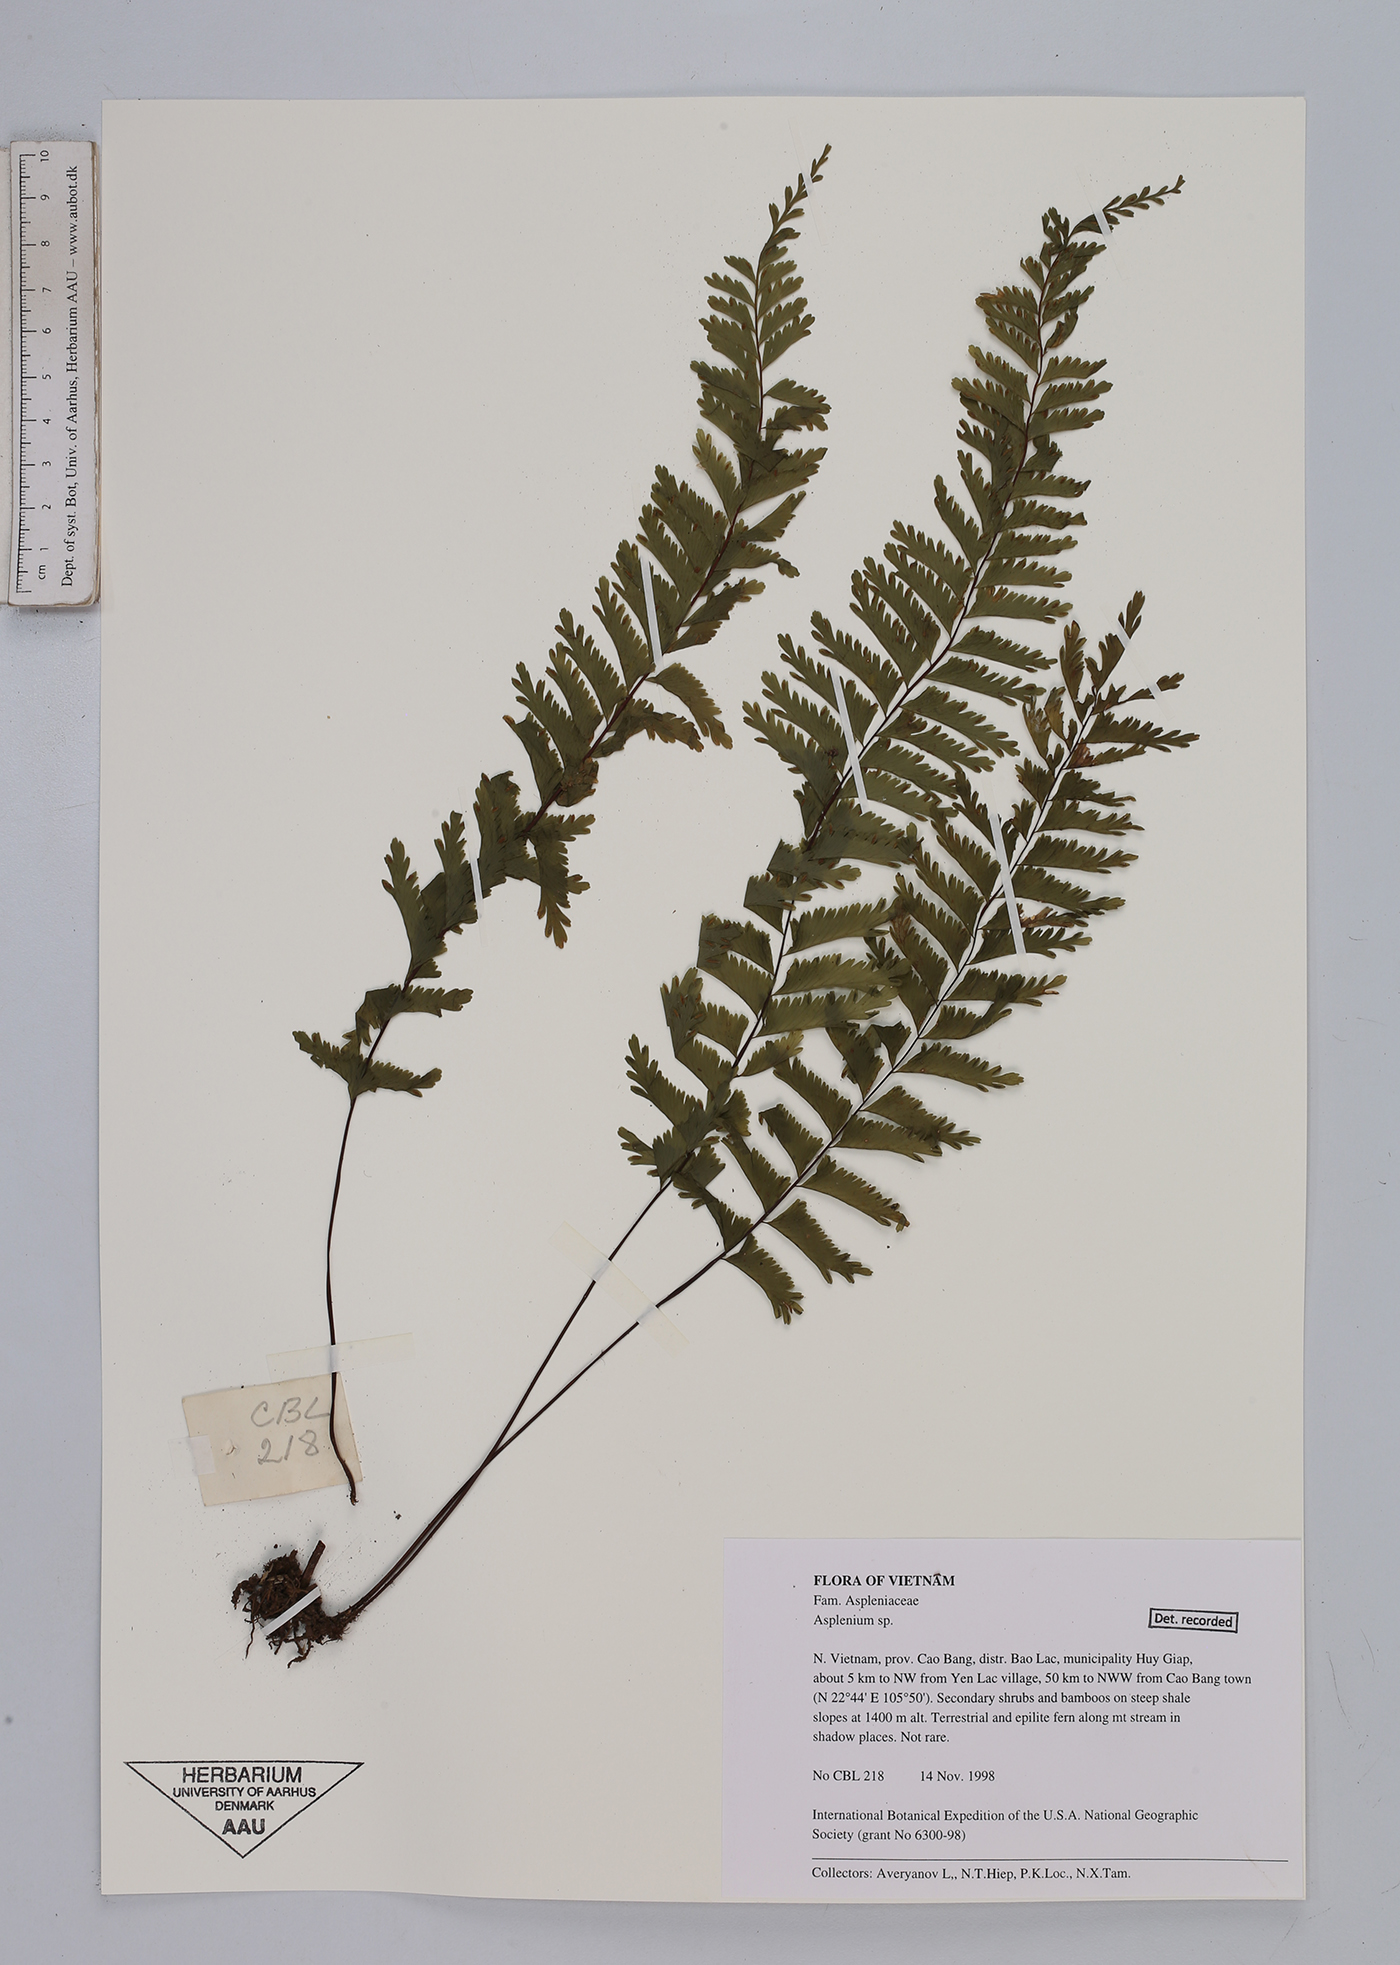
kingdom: Plantae
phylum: Tracheophyta
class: Polypodiopsida
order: Polypodiales
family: Aspleniaceae
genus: Asplenium
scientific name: Asplenium
